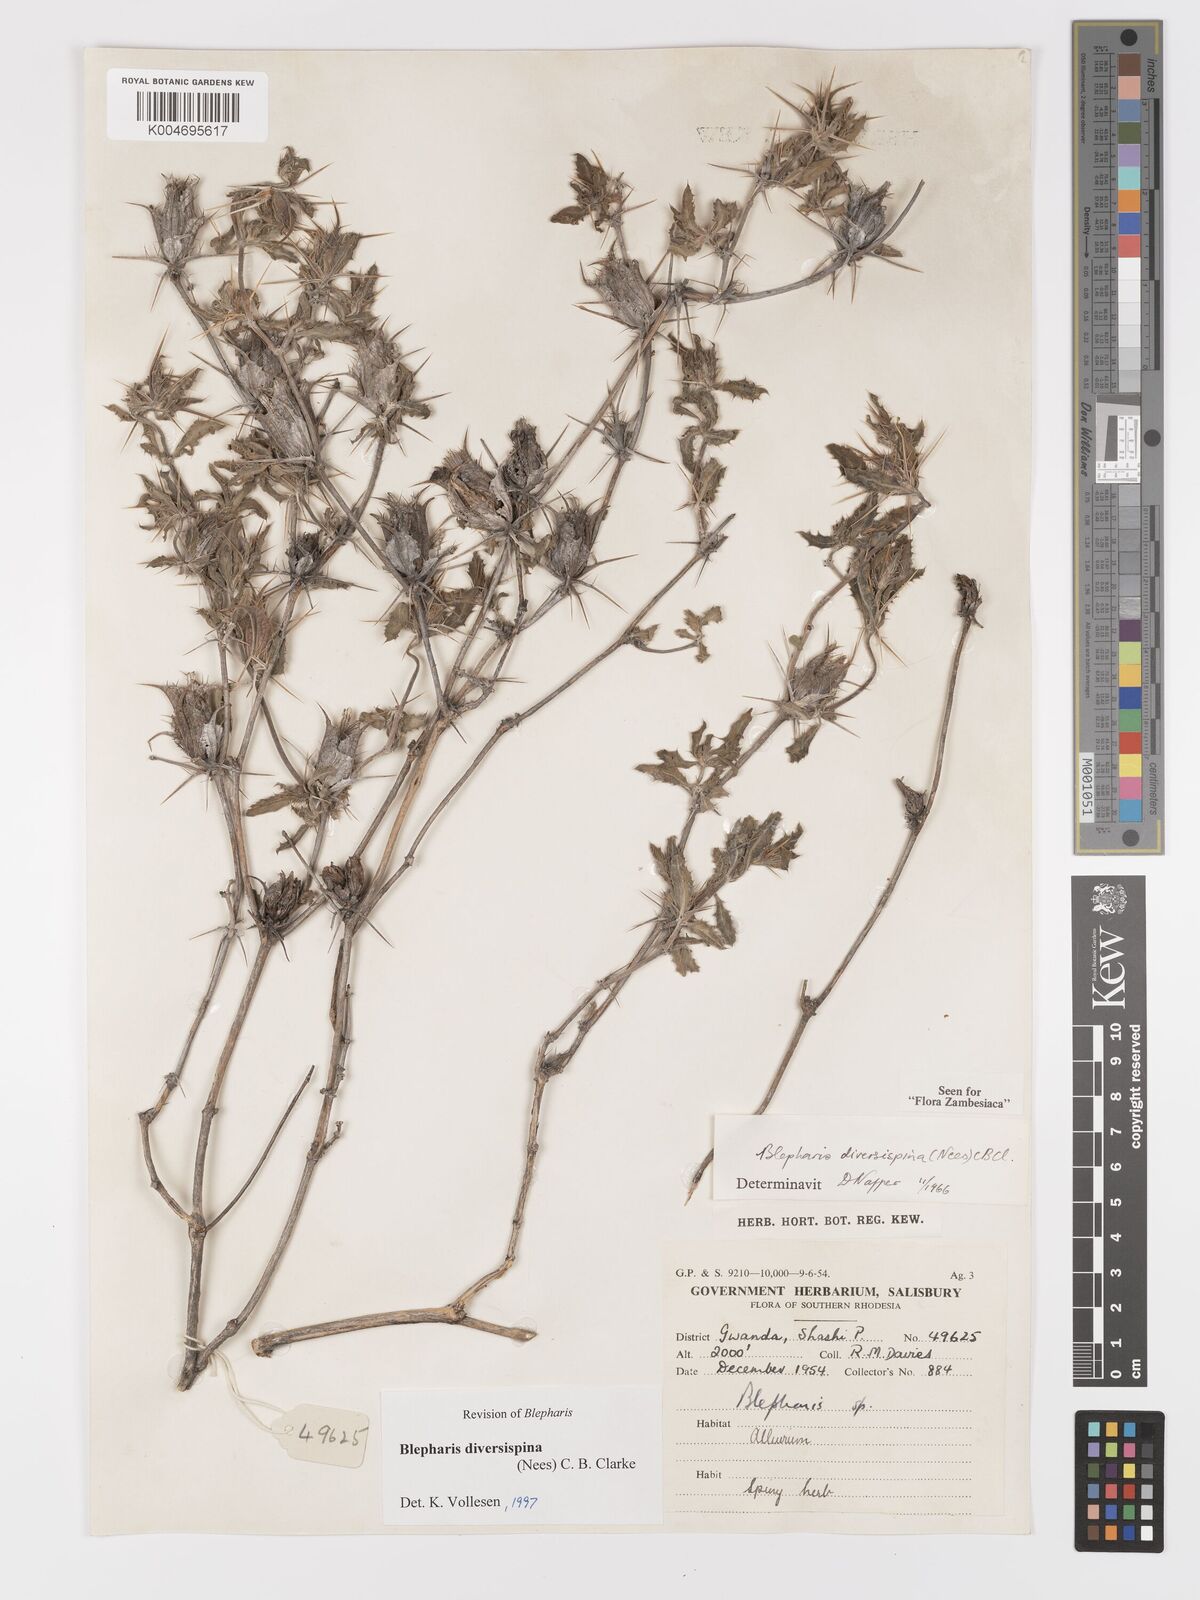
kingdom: Plantae
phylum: Tracheophyta
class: Magnoliopsida
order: Lamiales
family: Acanthaceae
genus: Blepharis
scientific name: Blepharis diversispina
